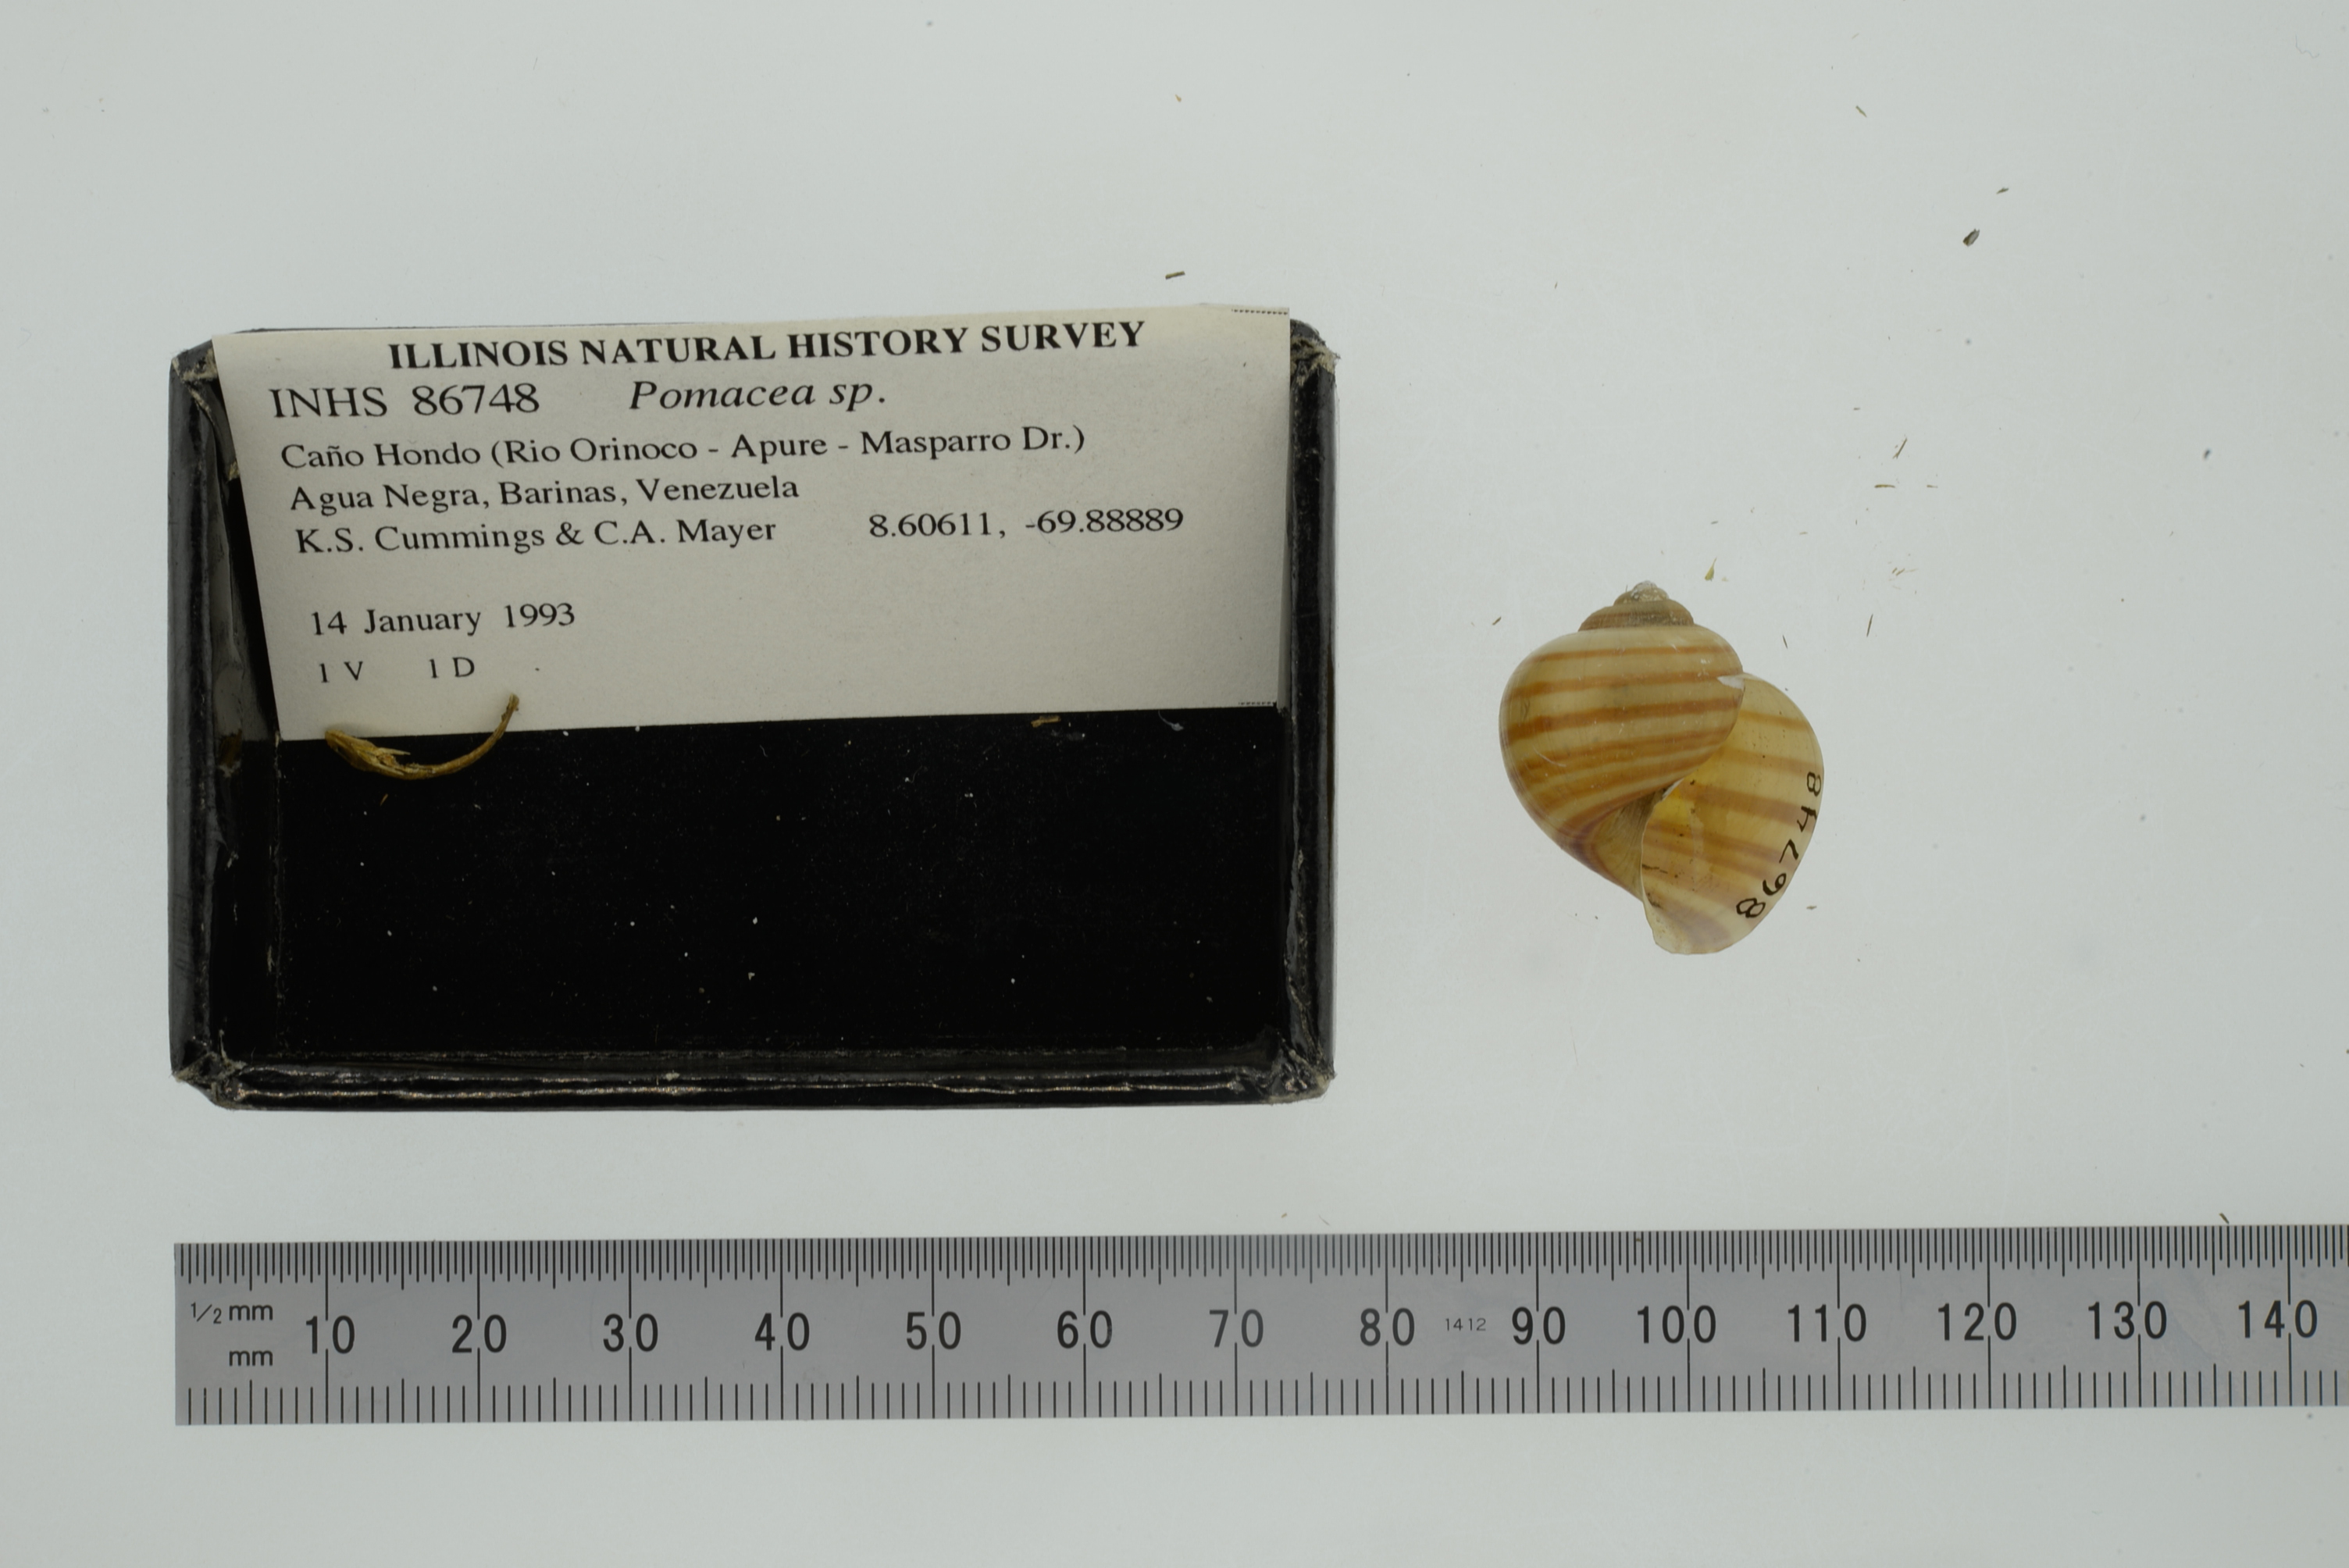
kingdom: Animalia
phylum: Mollusca
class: Gastropoda
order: Architaenioglossa
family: Ampullariidae
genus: Pomacea
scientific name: Pomacea
